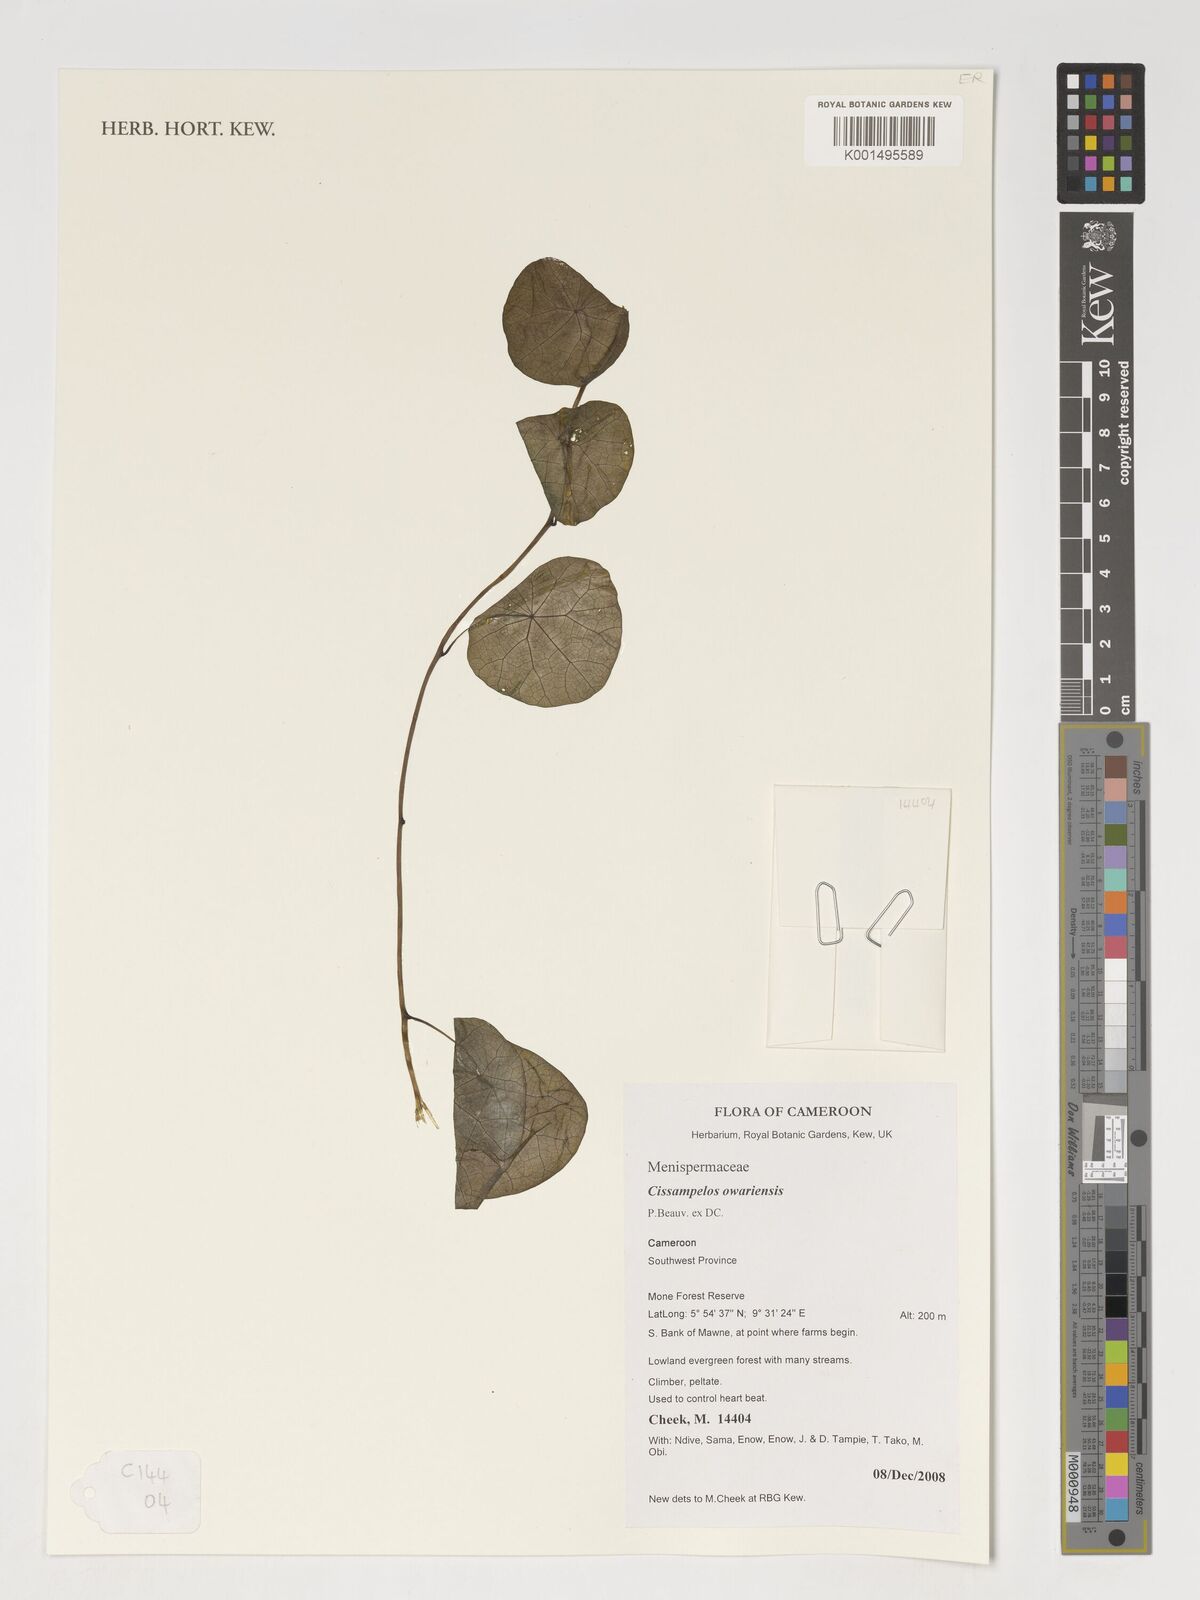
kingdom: Plantae
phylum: Tracheophyta
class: Magnoliopsida
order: Ranunculales
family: Menispermaceae
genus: Cissampelos
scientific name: Cissampelos owariensis
